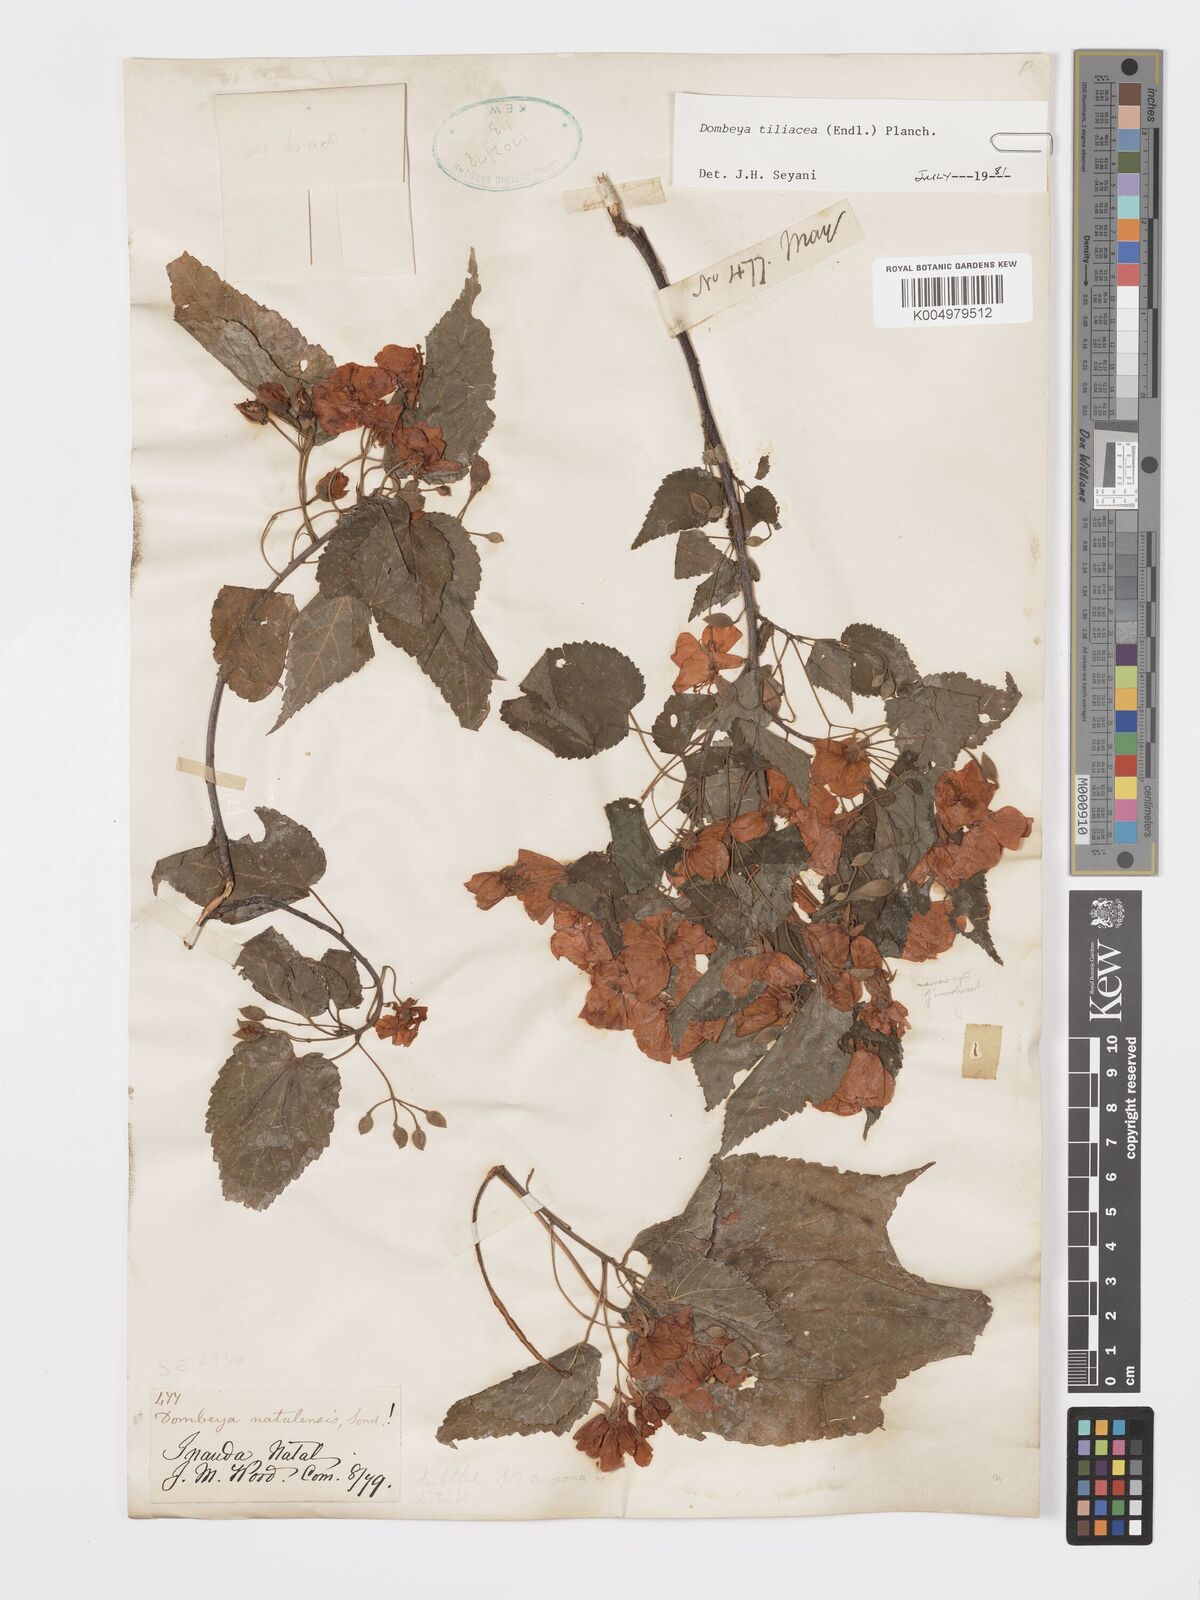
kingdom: Plantae
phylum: Tracheophyta
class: Magnoliopsida
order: Malvales
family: Malvaceae
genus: Dombeya
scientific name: Dombeya tiliacea
